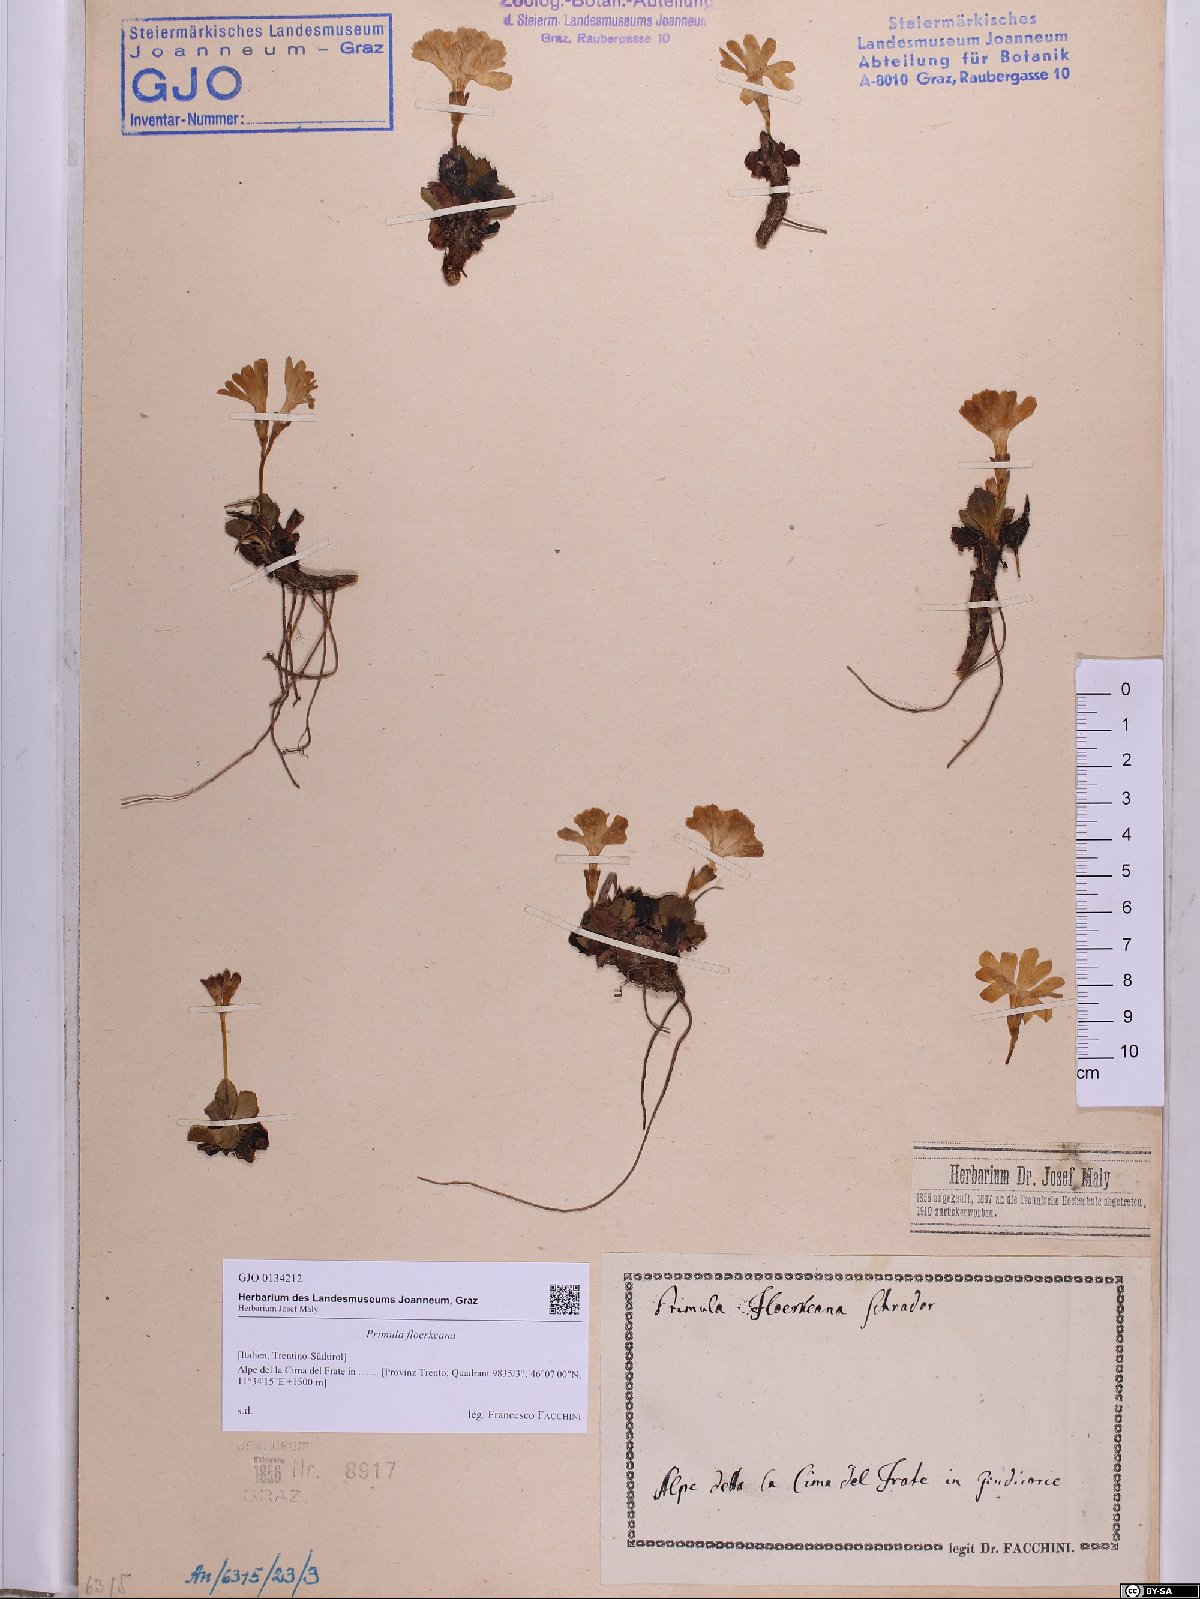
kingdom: Plantae
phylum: Tracheophyta
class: Magnoliopsida
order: Ericales
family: Primulaceae
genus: Primula
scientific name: Primula floerkeana
